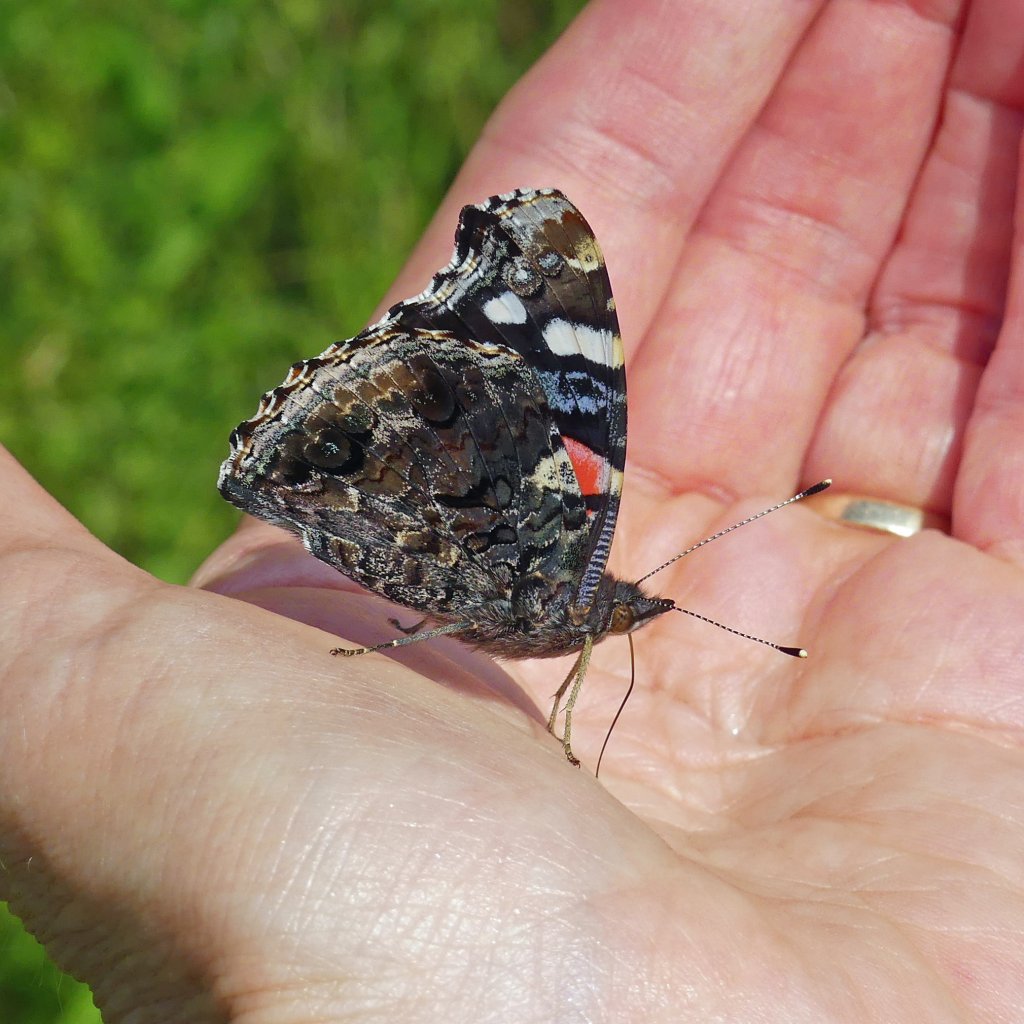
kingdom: Animalia
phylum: Arthropoda
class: Insecta
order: Lepidoptera
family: Nymphalidae
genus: Vanessa
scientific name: Vanessa atalanta
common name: Red Admiral
